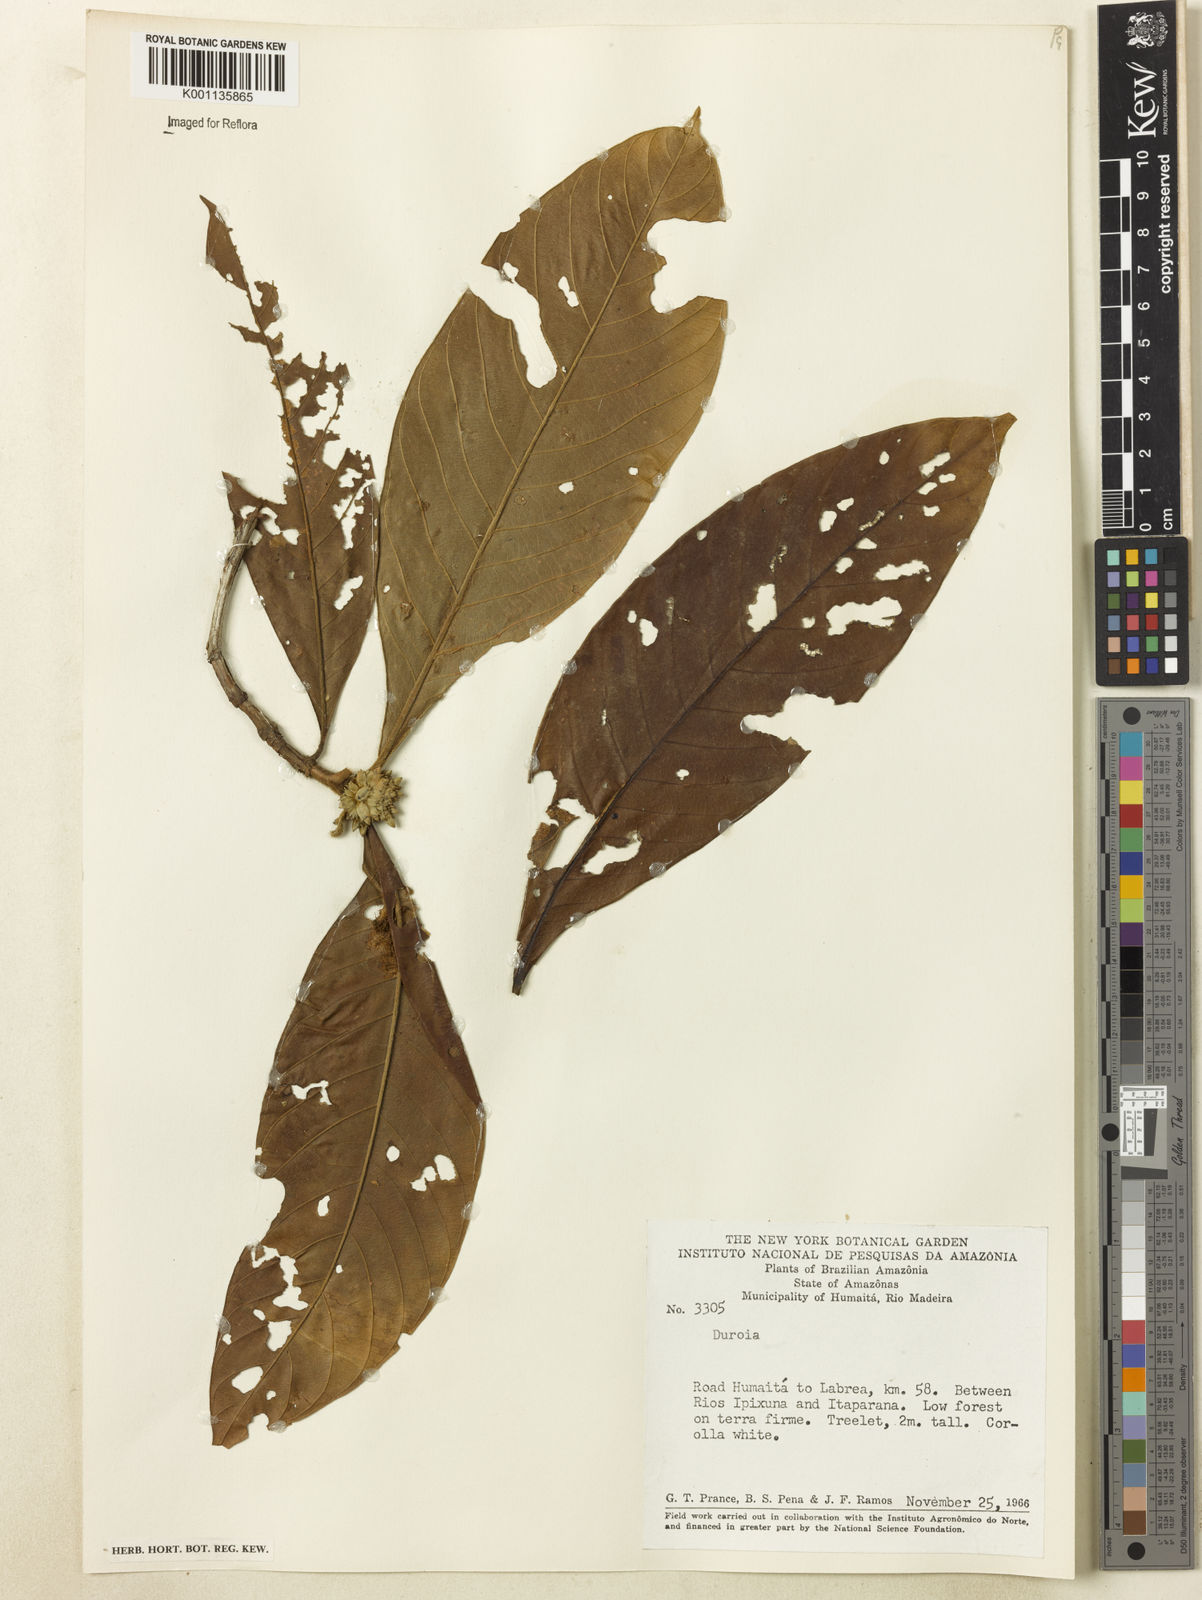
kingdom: Plantae
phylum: Tracheophyta
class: Magnoliopsida
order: Gentianales
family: Rubiaceae
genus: Duroia
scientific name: Duroia
